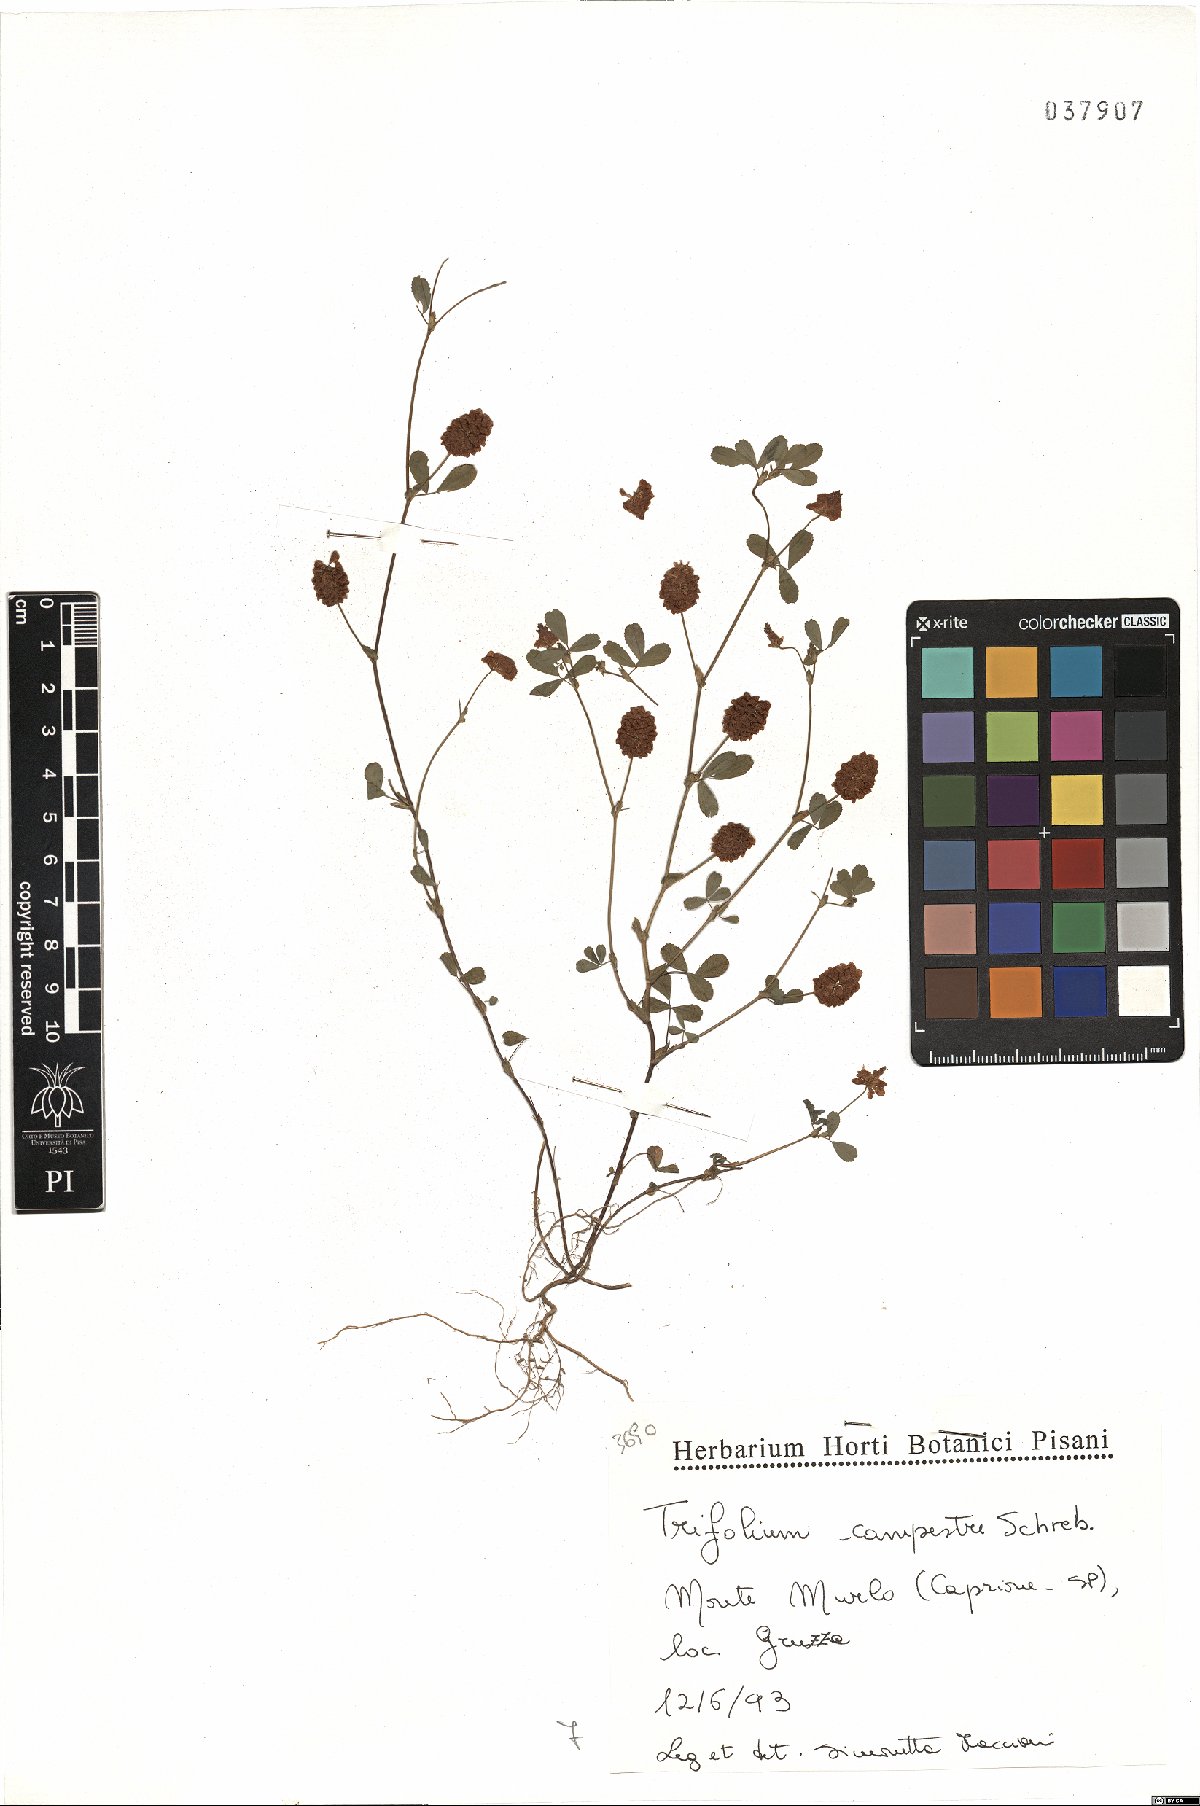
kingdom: Plantae
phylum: Tracheophyta
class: Magnoliopsida
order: Fabales
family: Fabaceae
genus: Trifolium
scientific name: Trifolium campestre
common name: Field clover
